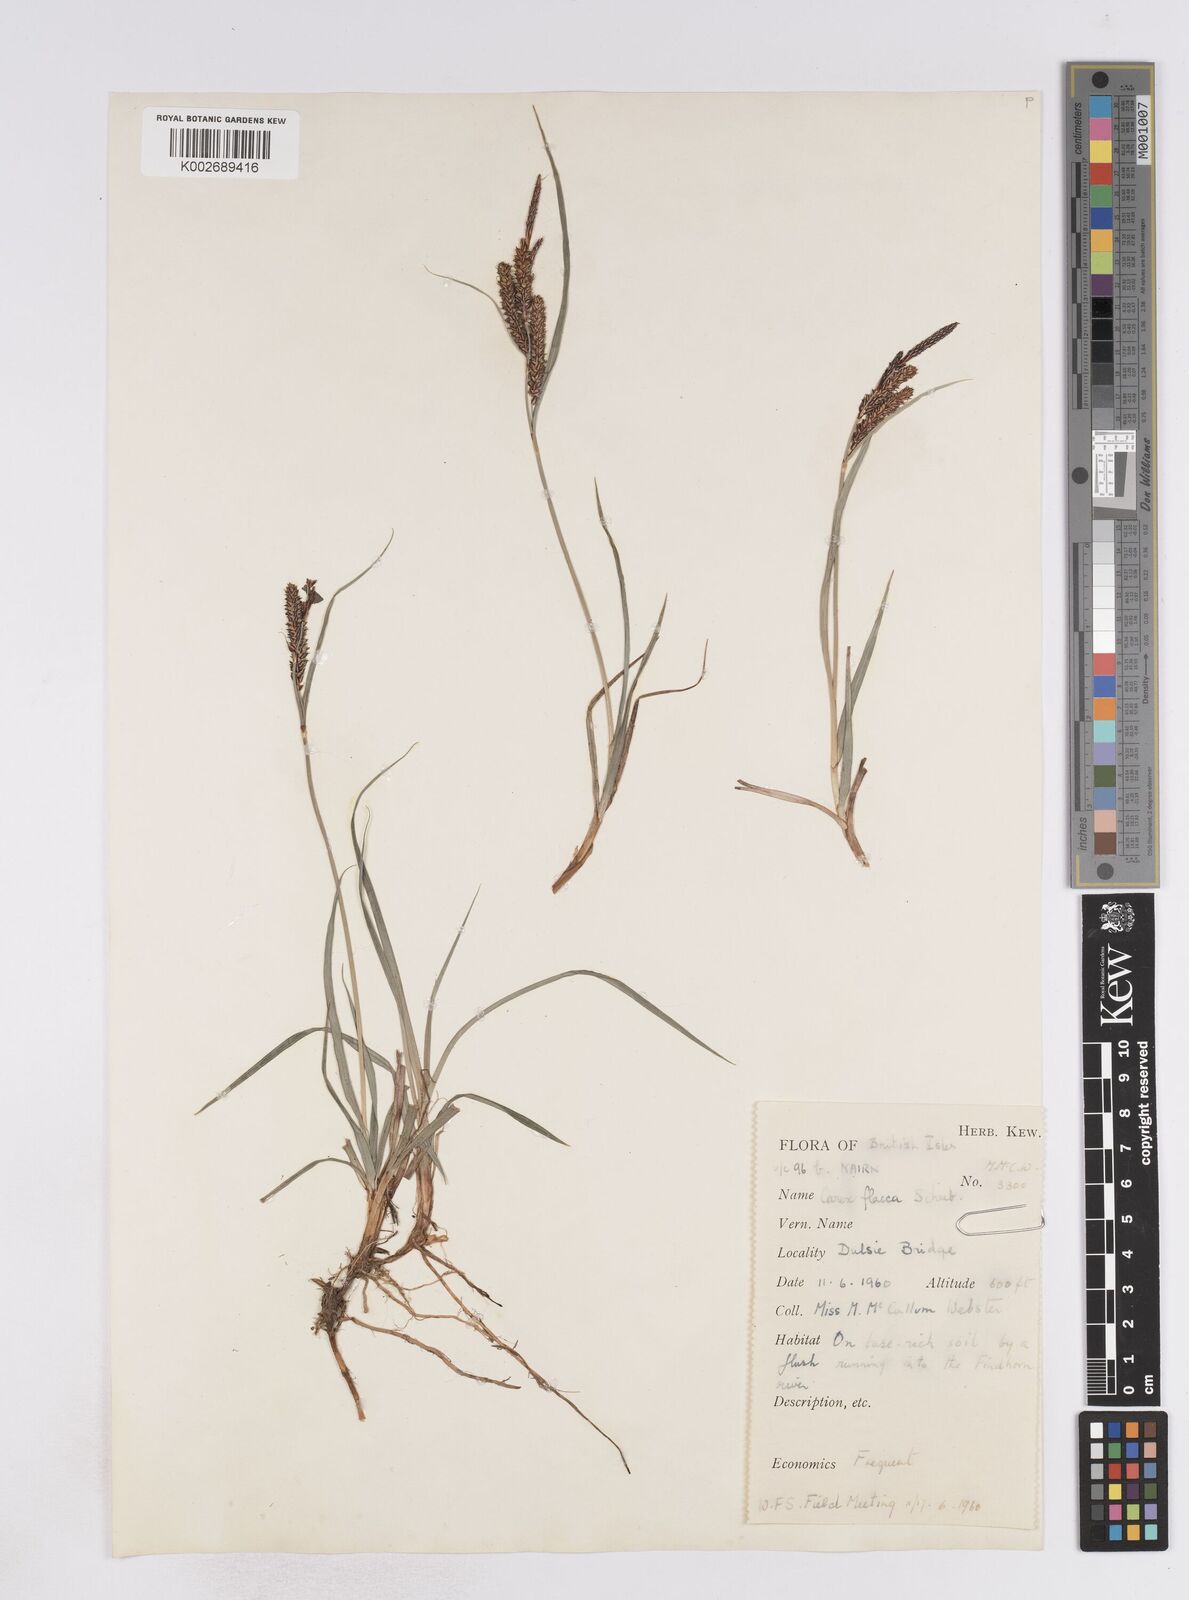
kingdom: Plantae
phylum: Tracheophyta
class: Liliopsida
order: Poales
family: Cyperaceae
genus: Carex
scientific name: Carex flacca
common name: Glaucous sedge
